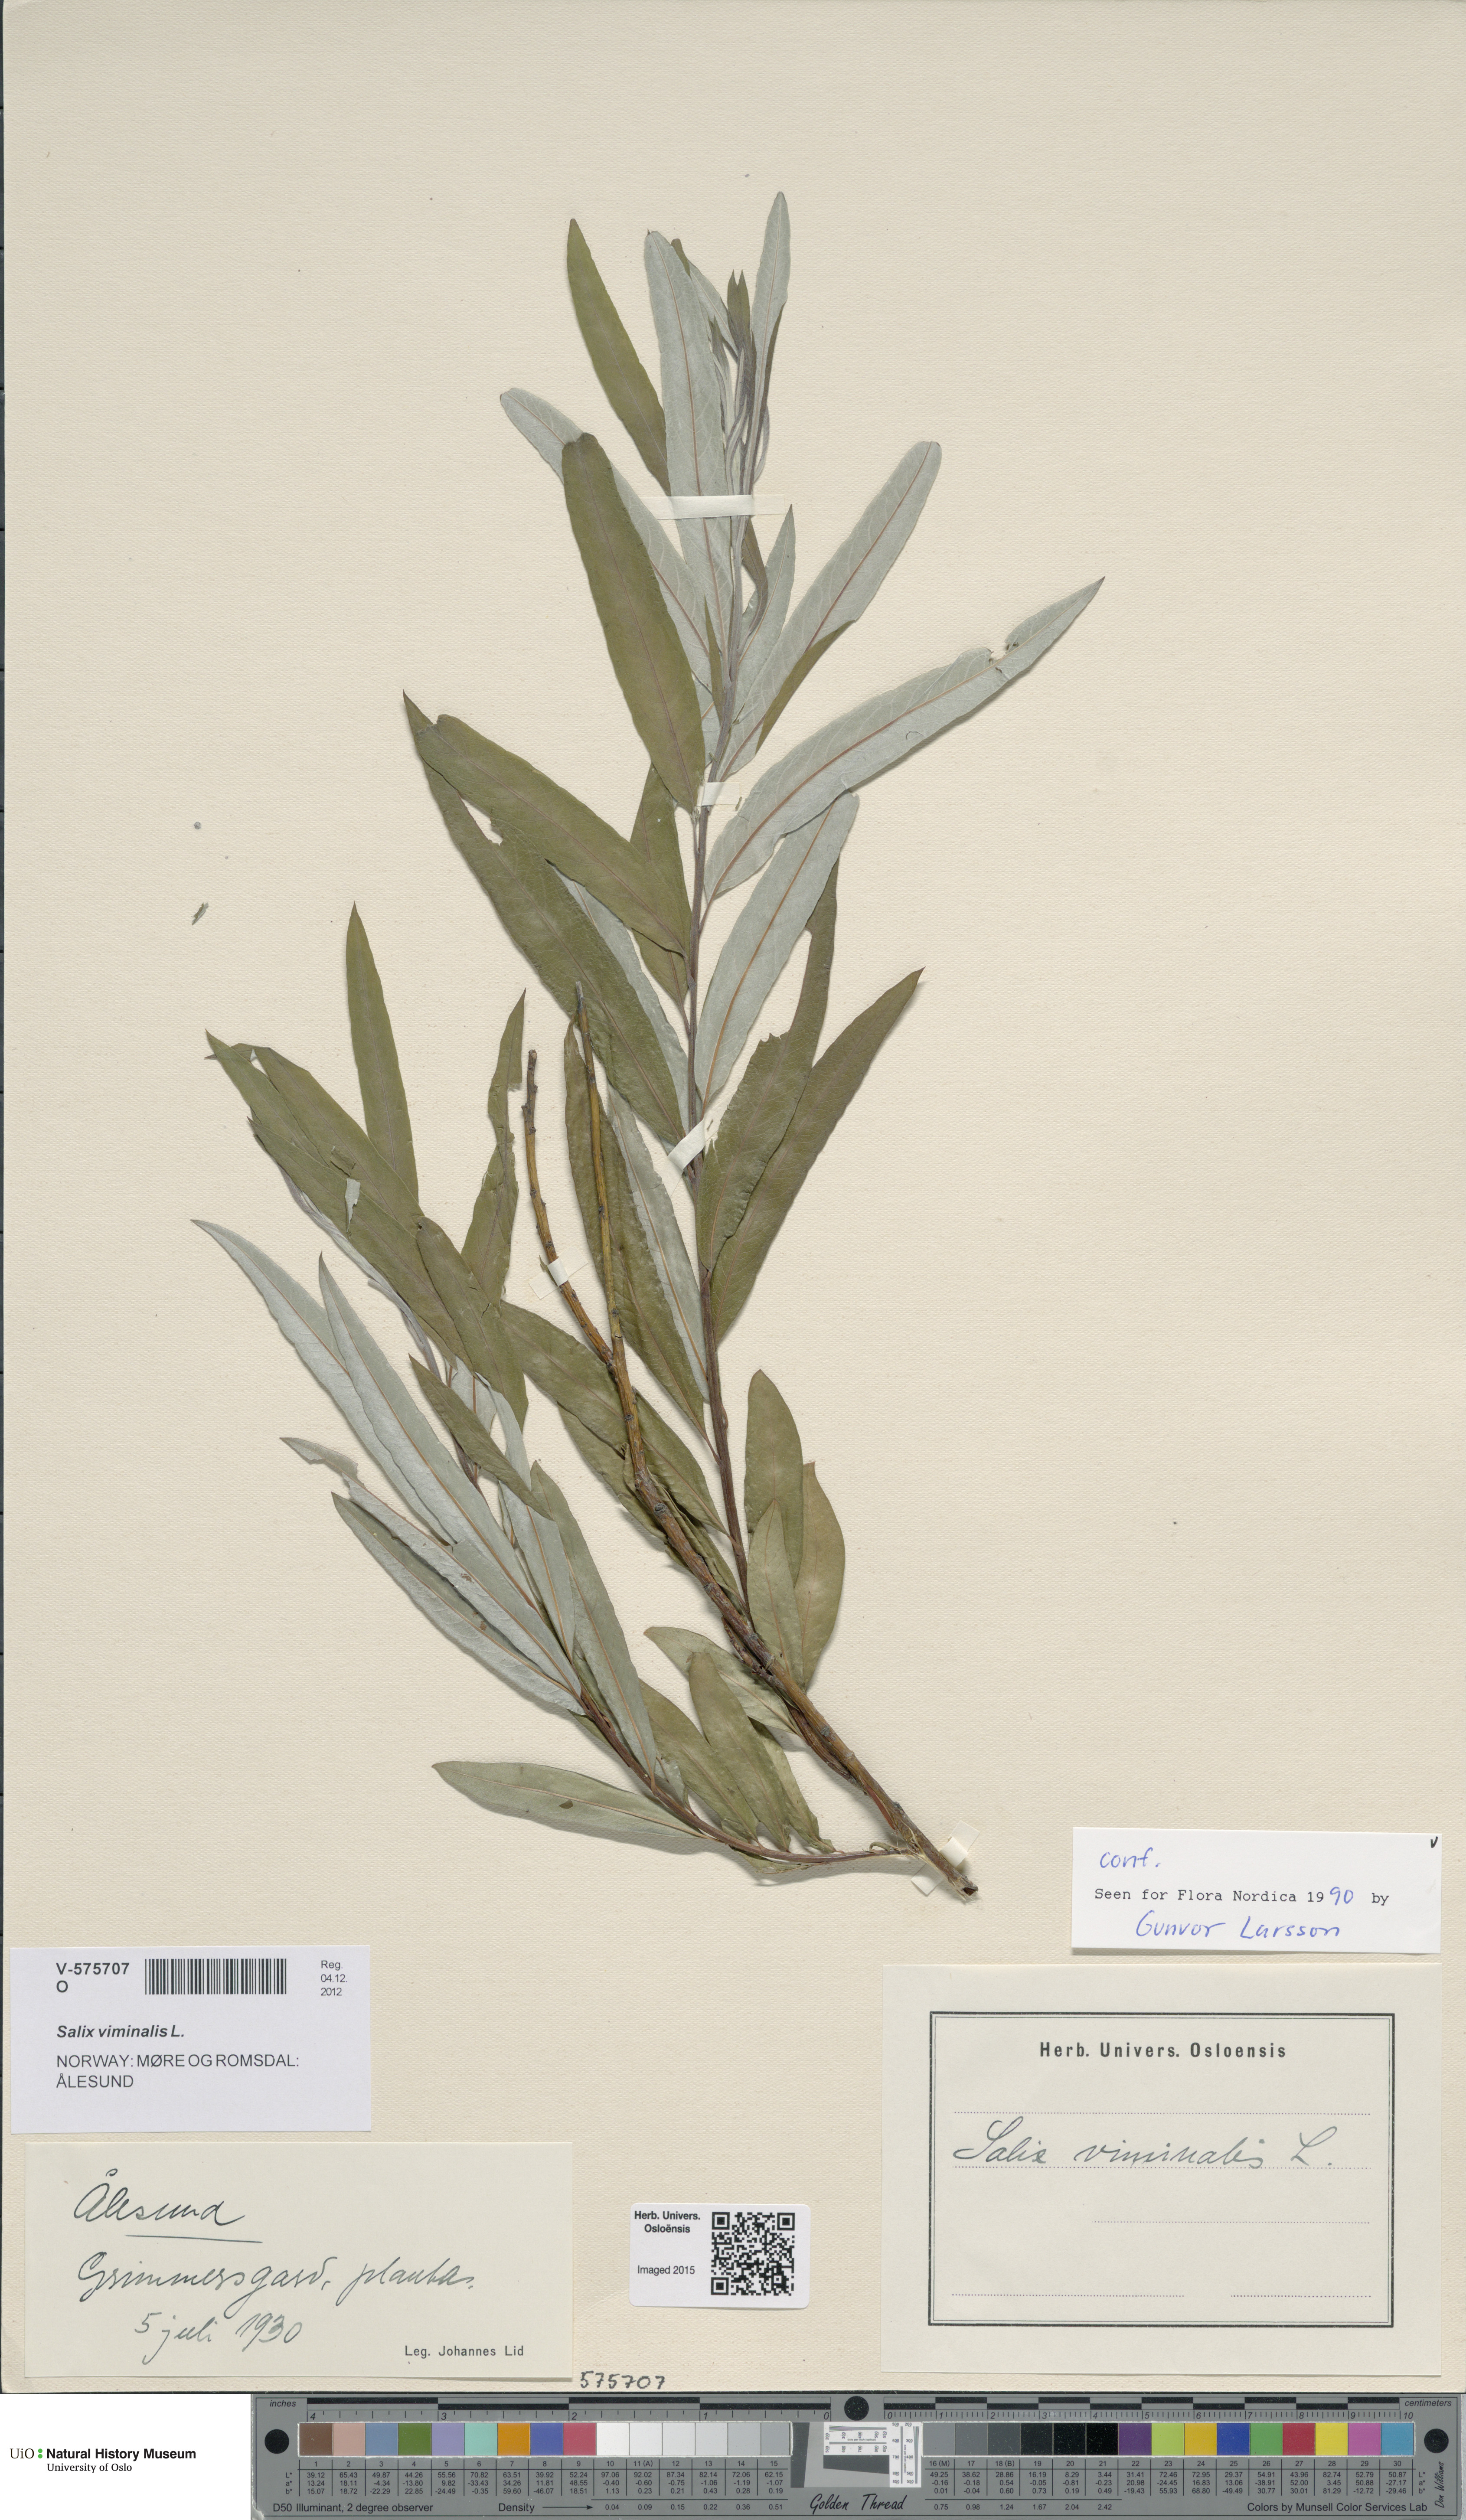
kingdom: Plantae
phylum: Tracheophyta
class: Magnoliopsida
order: Malpighiales
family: Salicaceae
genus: Salix
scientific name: Salix viminalis
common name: Osier
